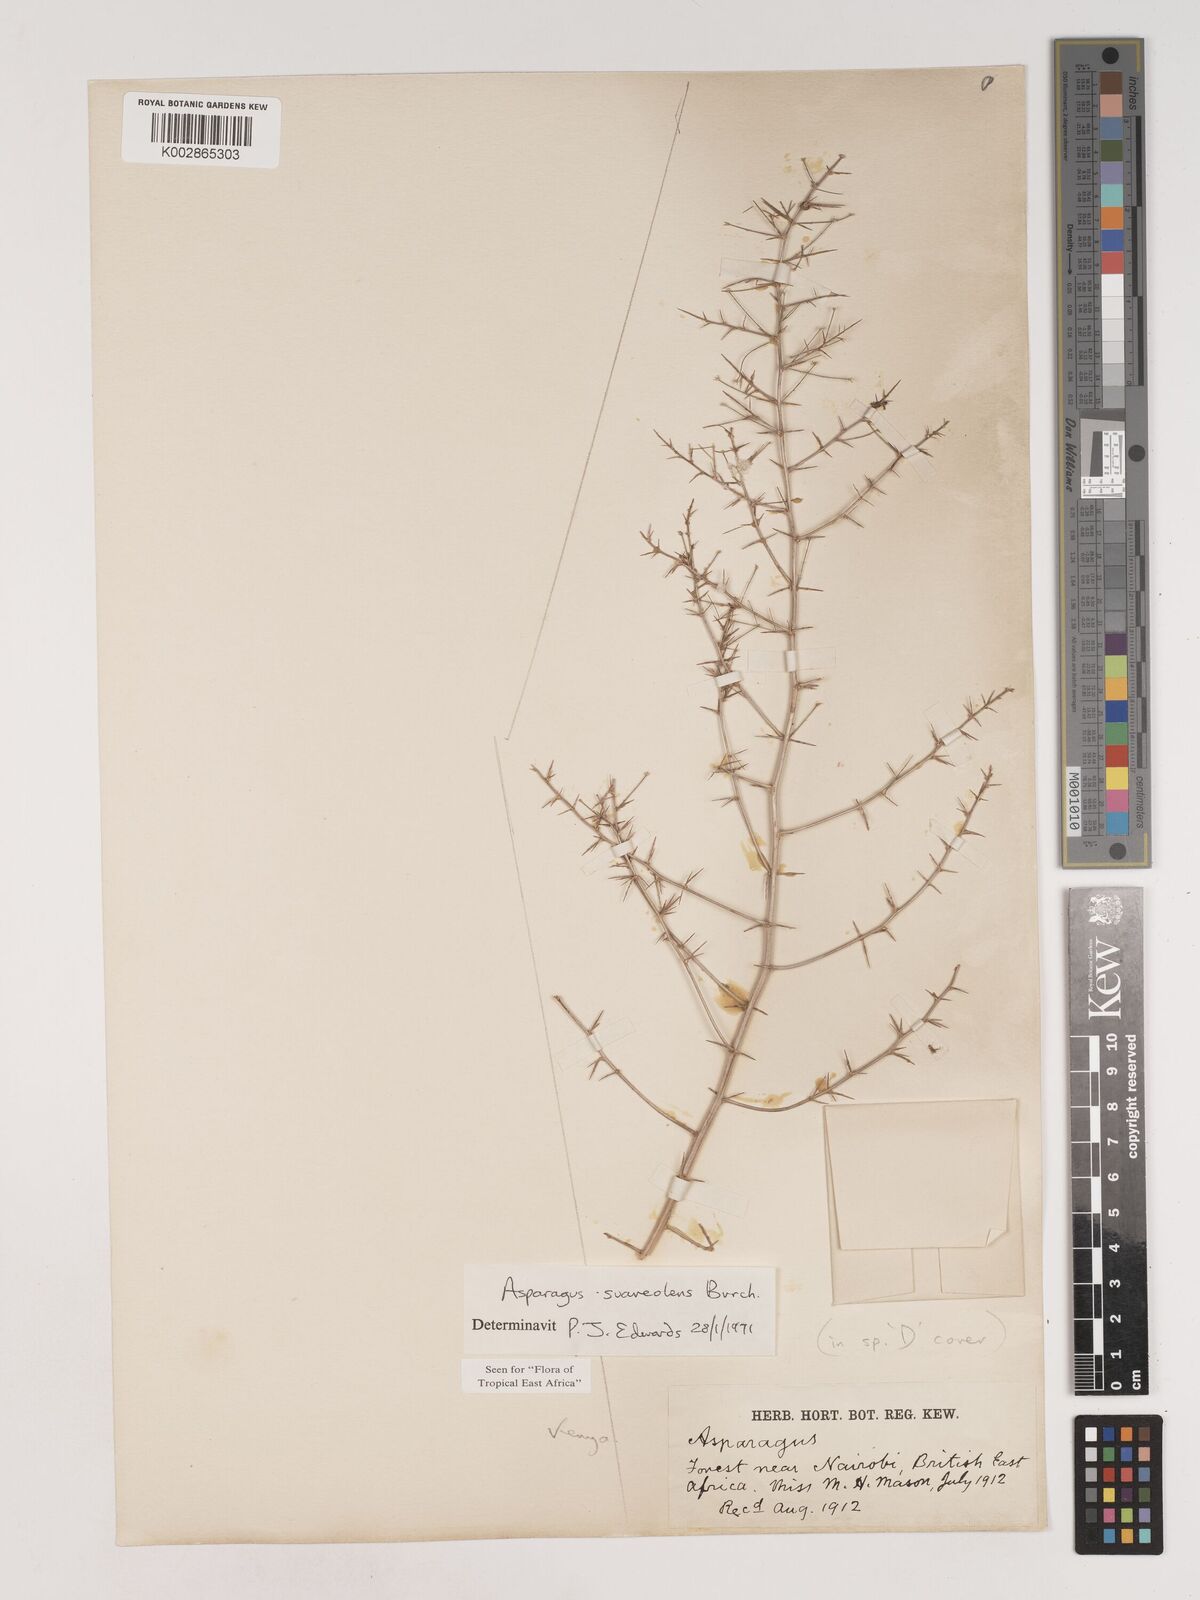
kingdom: Plantae
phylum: Tracheophyta
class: Liliopsida
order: Asparagales
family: Asparagaceae
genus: Asparagus
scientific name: Asparagus
